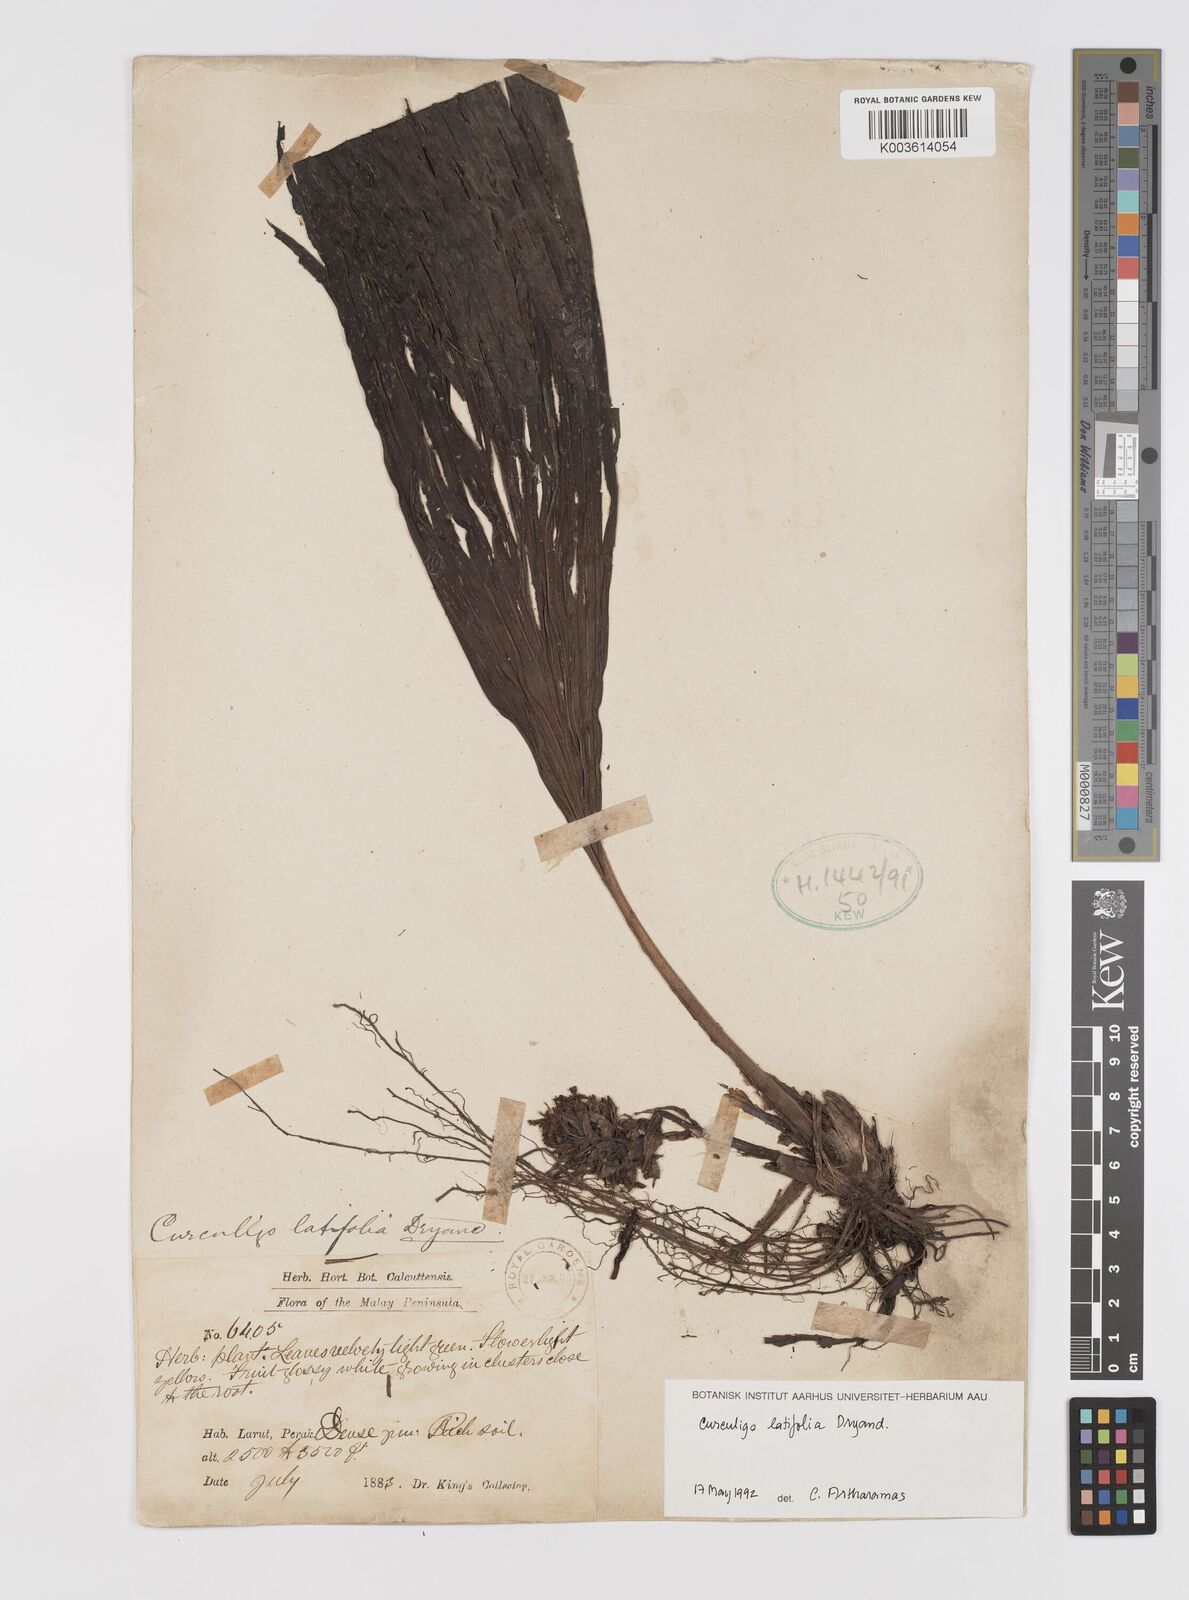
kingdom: Plantae
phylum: Tracheophyta
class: Liliopsida
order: Asparagales
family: Hypoxidaceae
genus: Curculigo
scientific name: Curculigo latifolia
